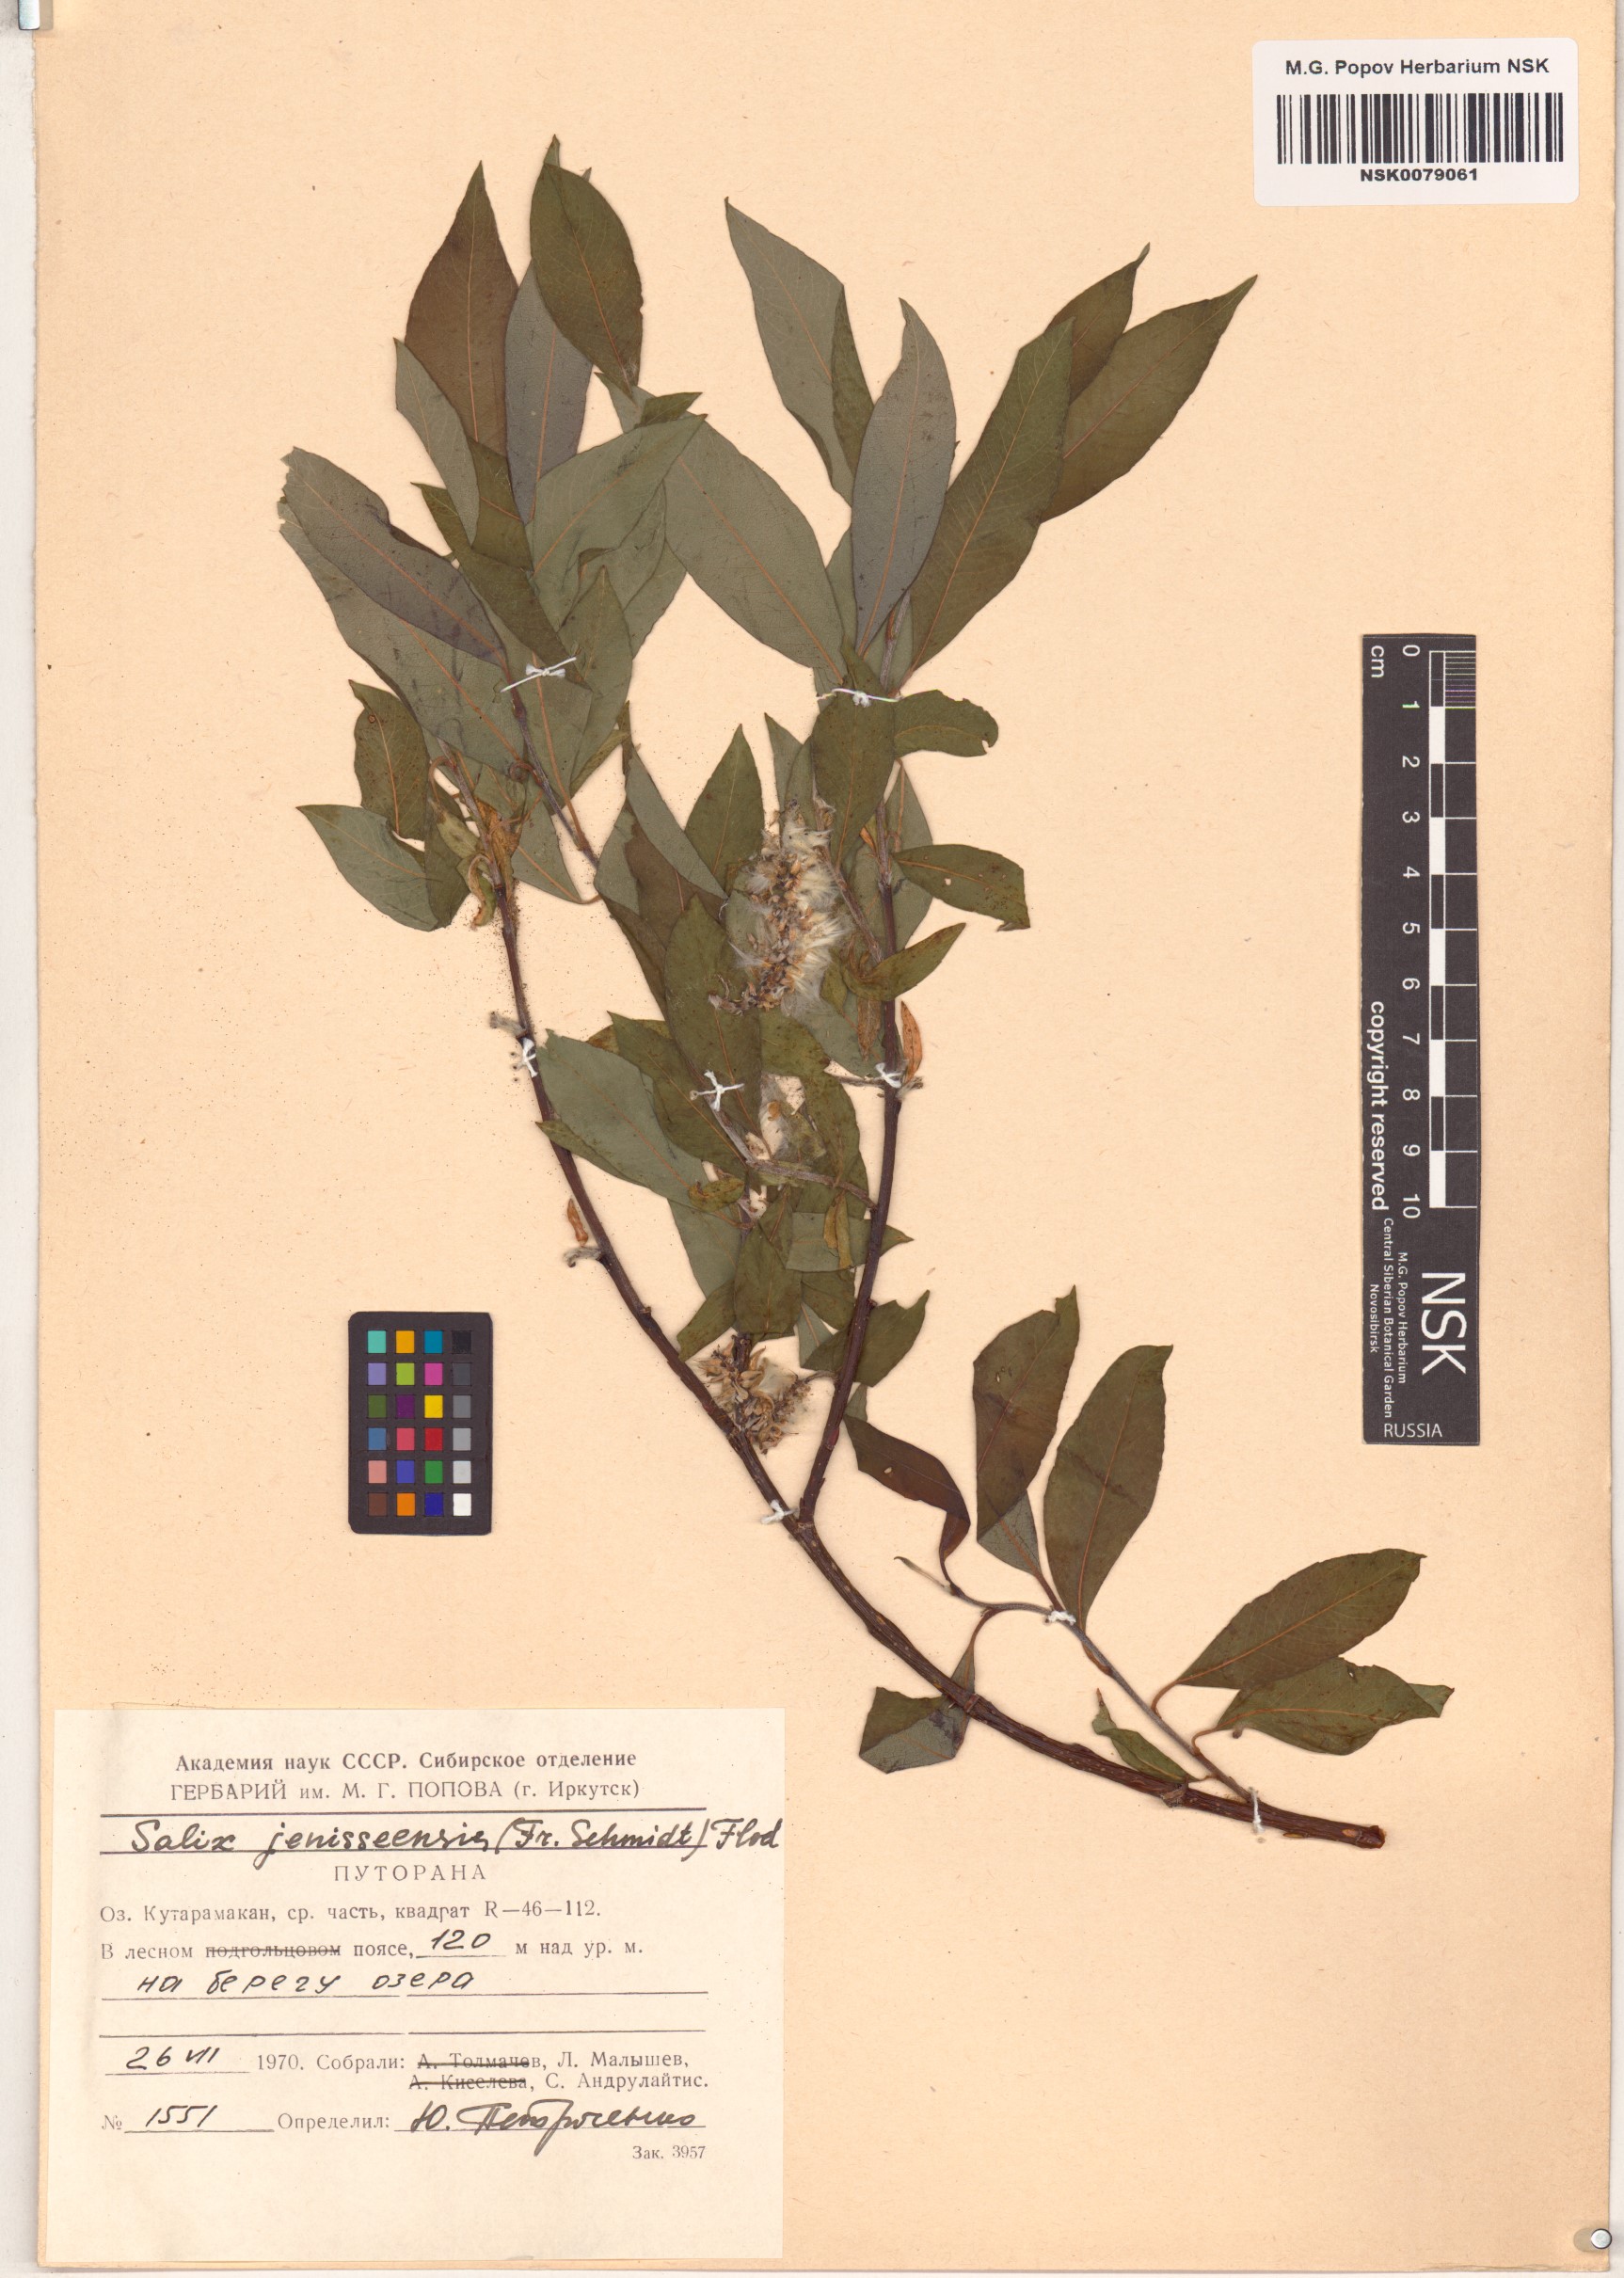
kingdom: Plantae
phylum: Tracheophyta
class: Magnoliopsida
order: Malpighiales
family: Salicaceae
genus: Salix
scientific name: Salix jenisseensis
